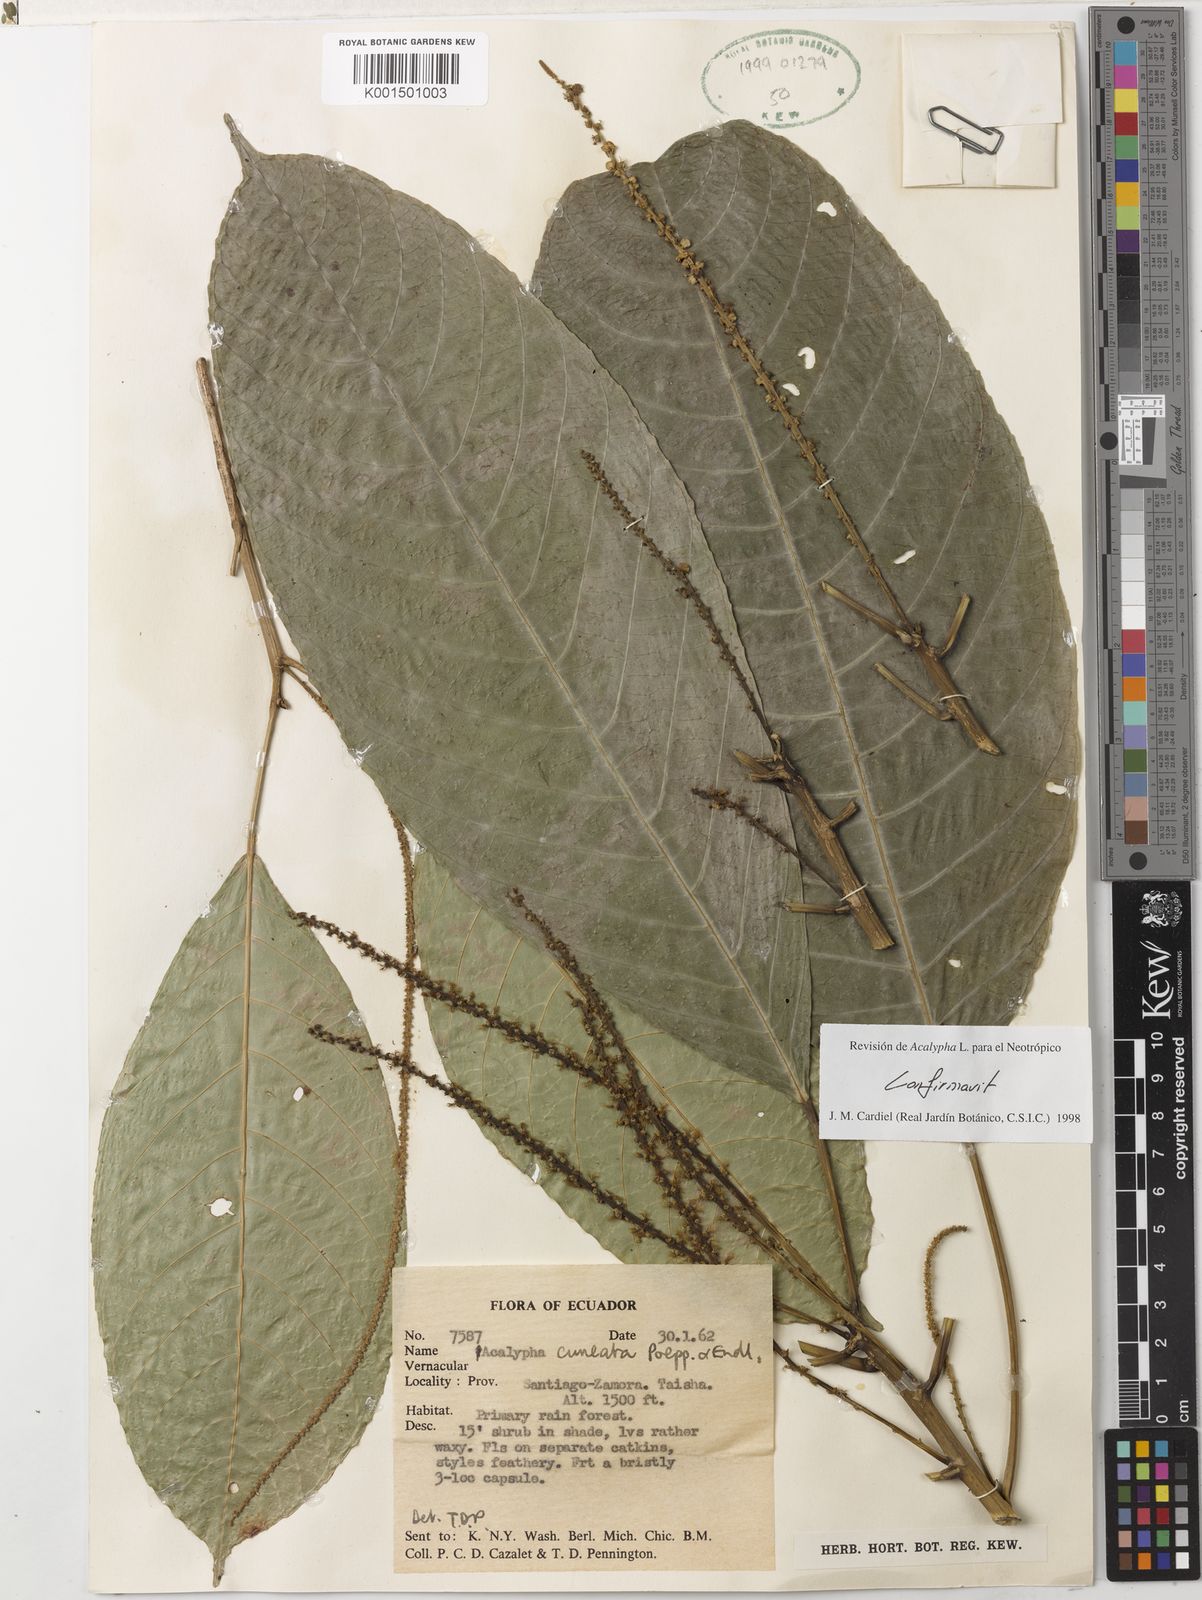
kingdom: Plantae
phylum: Tracheophyta
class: Magnoliopsida
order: Malpighiales
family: Euphorbiaceae
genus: Acalypha
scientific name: Acalypha cuneata
